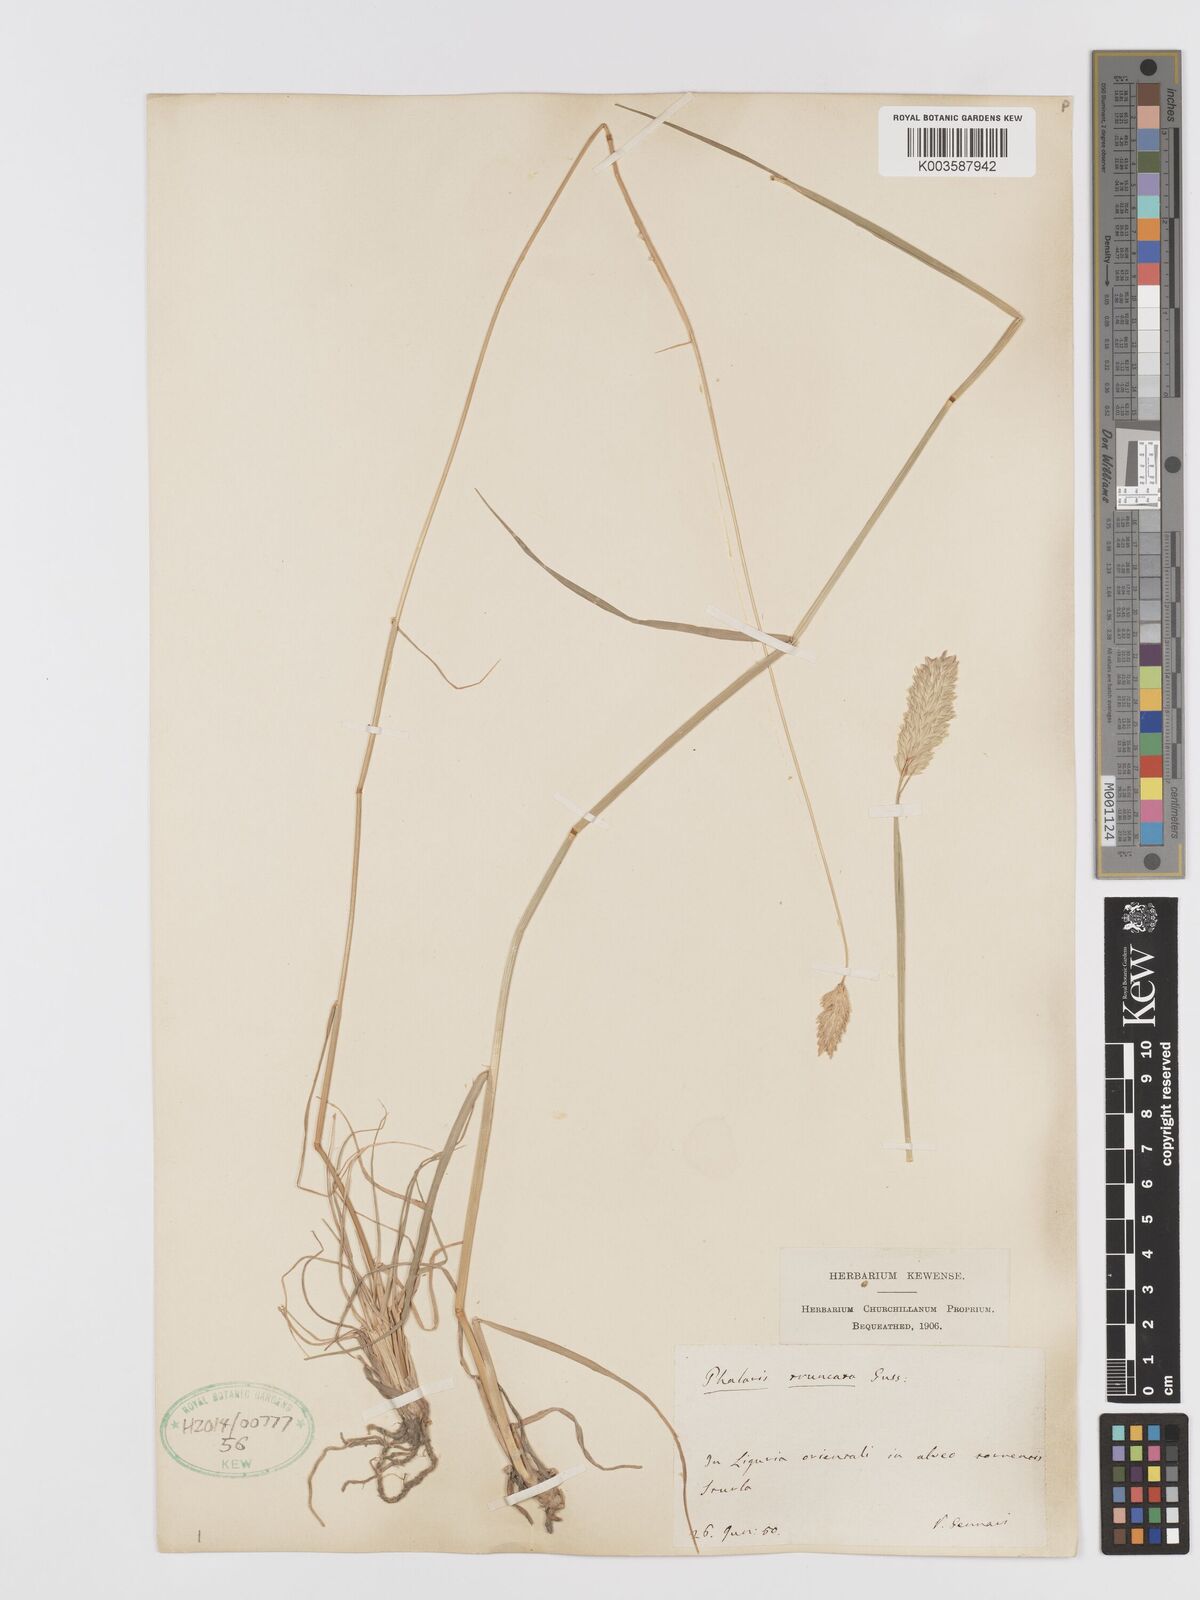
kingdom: Plantae
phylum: Tracheophyta
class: Liliopsida
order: Poales
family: Poaceae
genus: Phalaris
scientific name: Phalaris truncata
